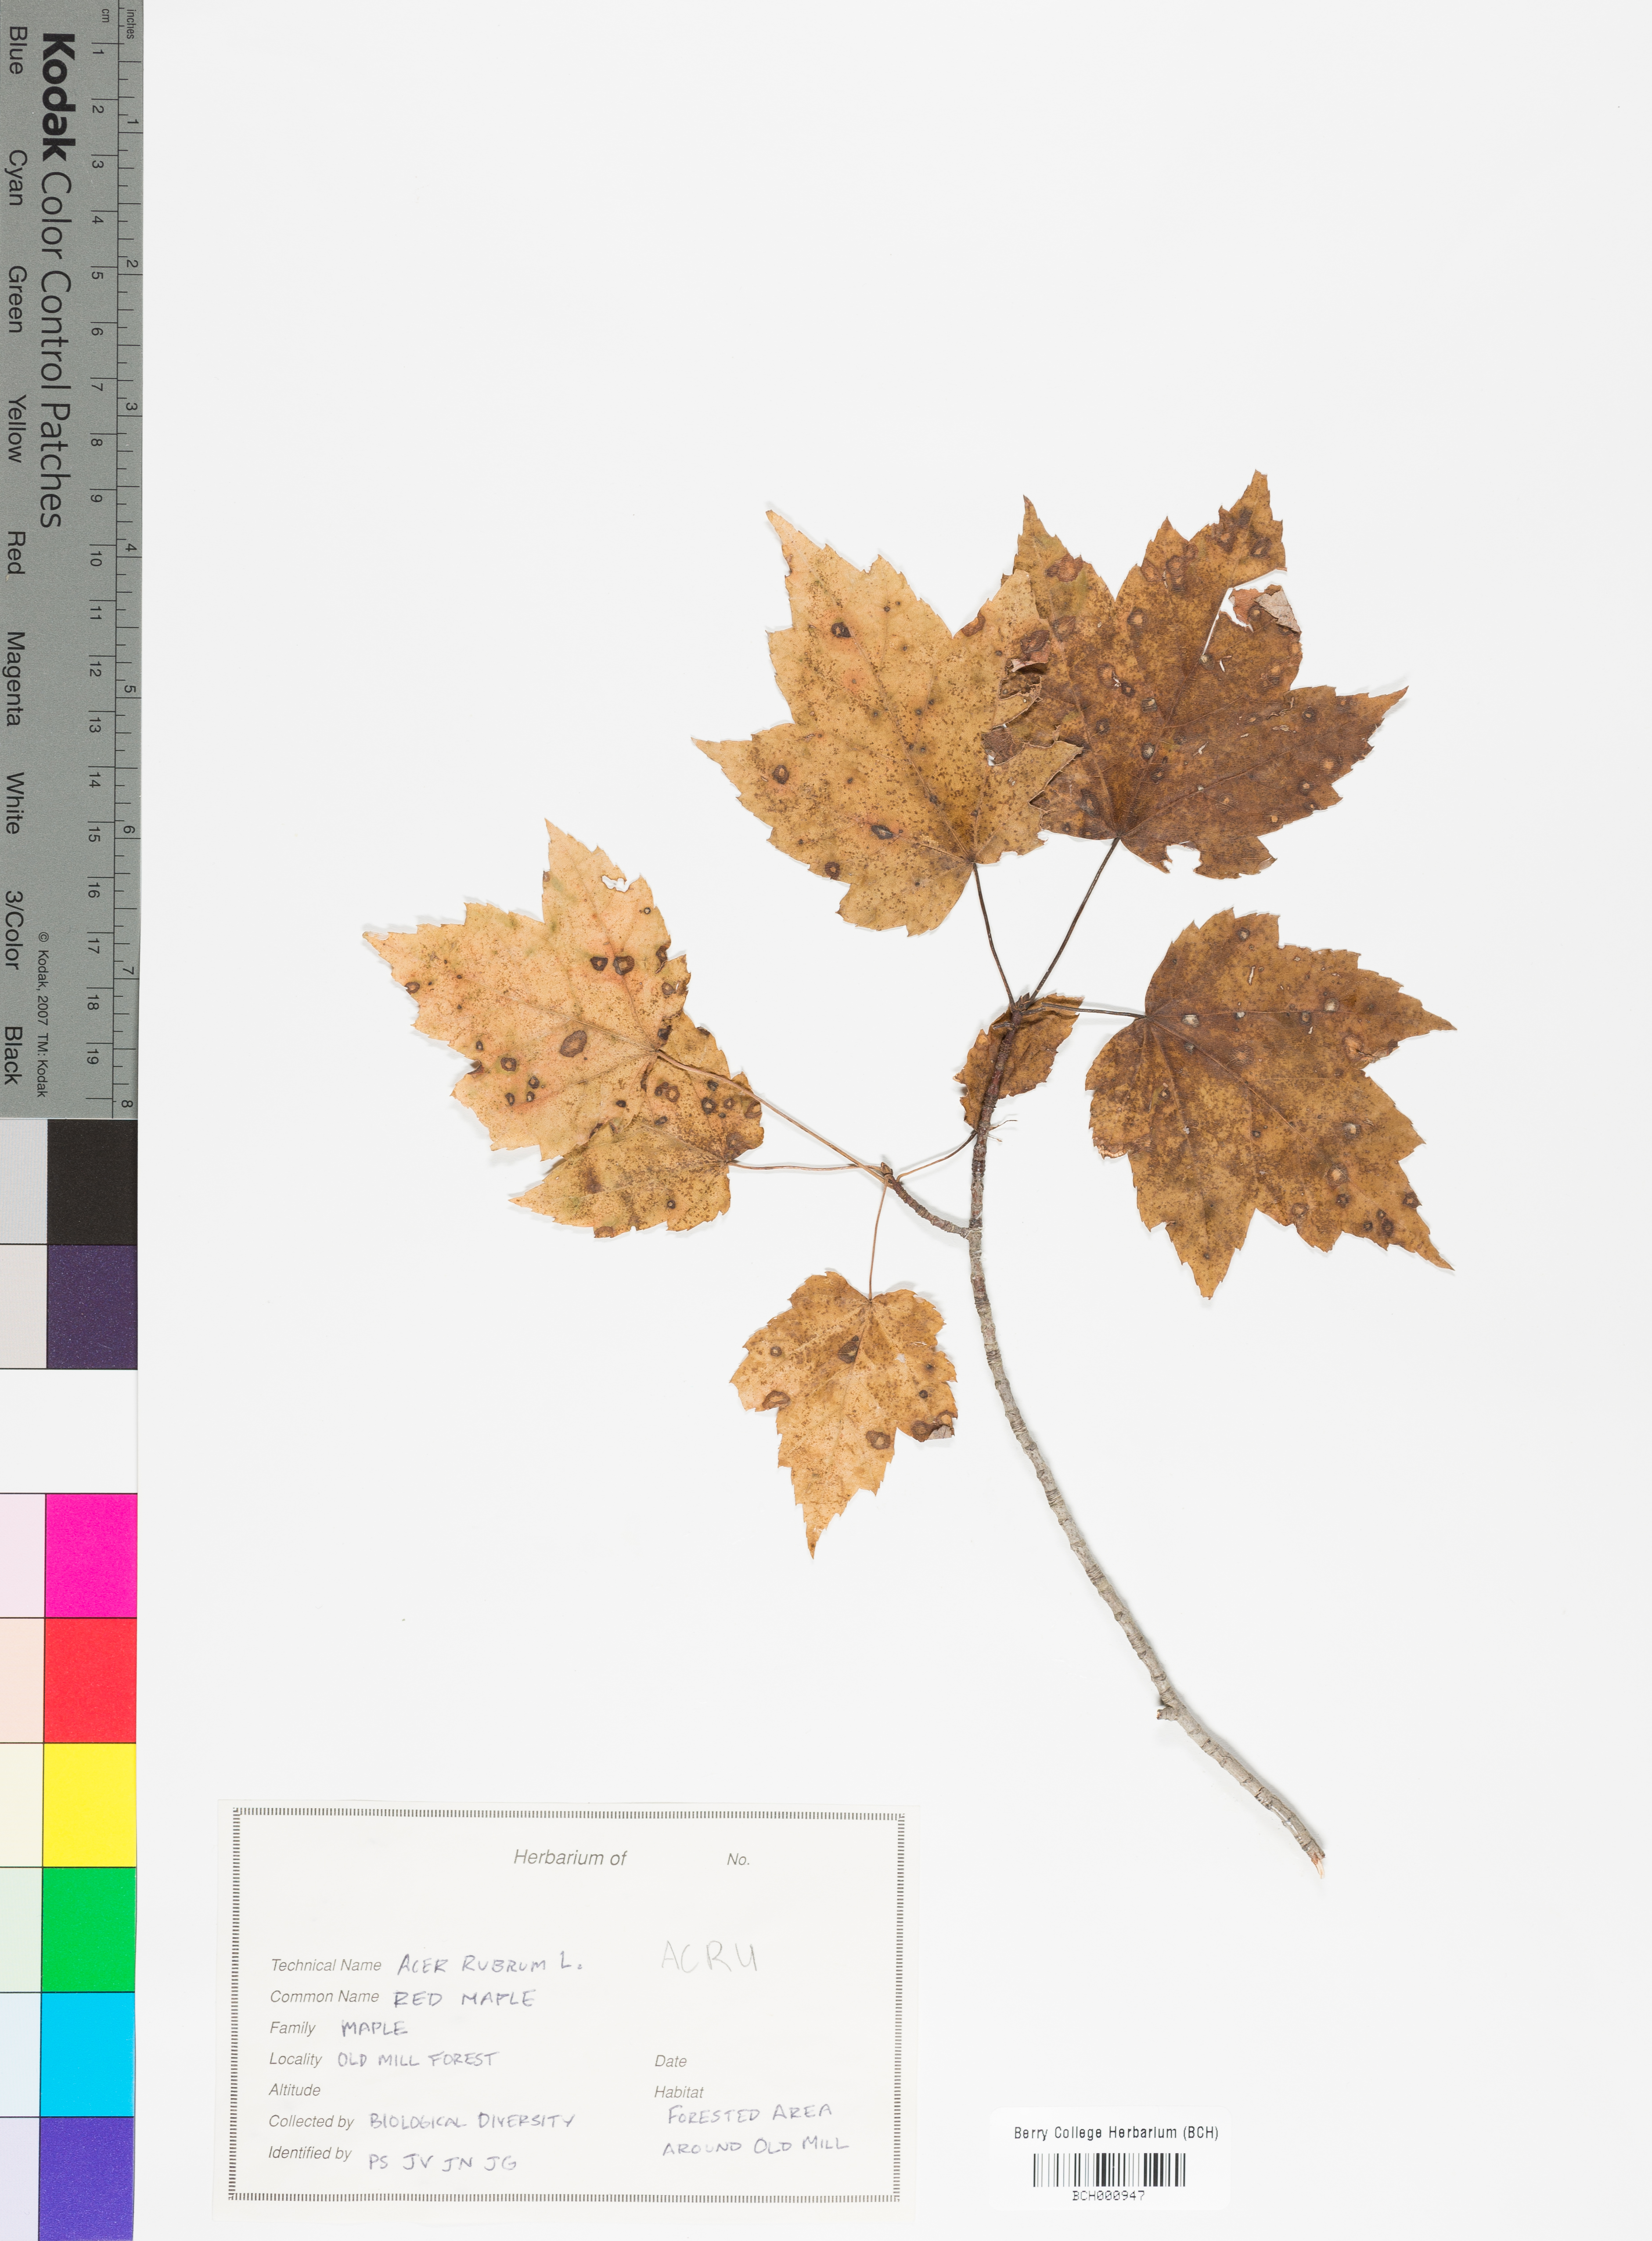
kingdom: Plantae
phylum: Tracheophyta
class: Magnoliopsida
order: Sapindales
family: Sapindaceae
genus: Acer
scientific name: Acer rubrum
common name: Red maple
